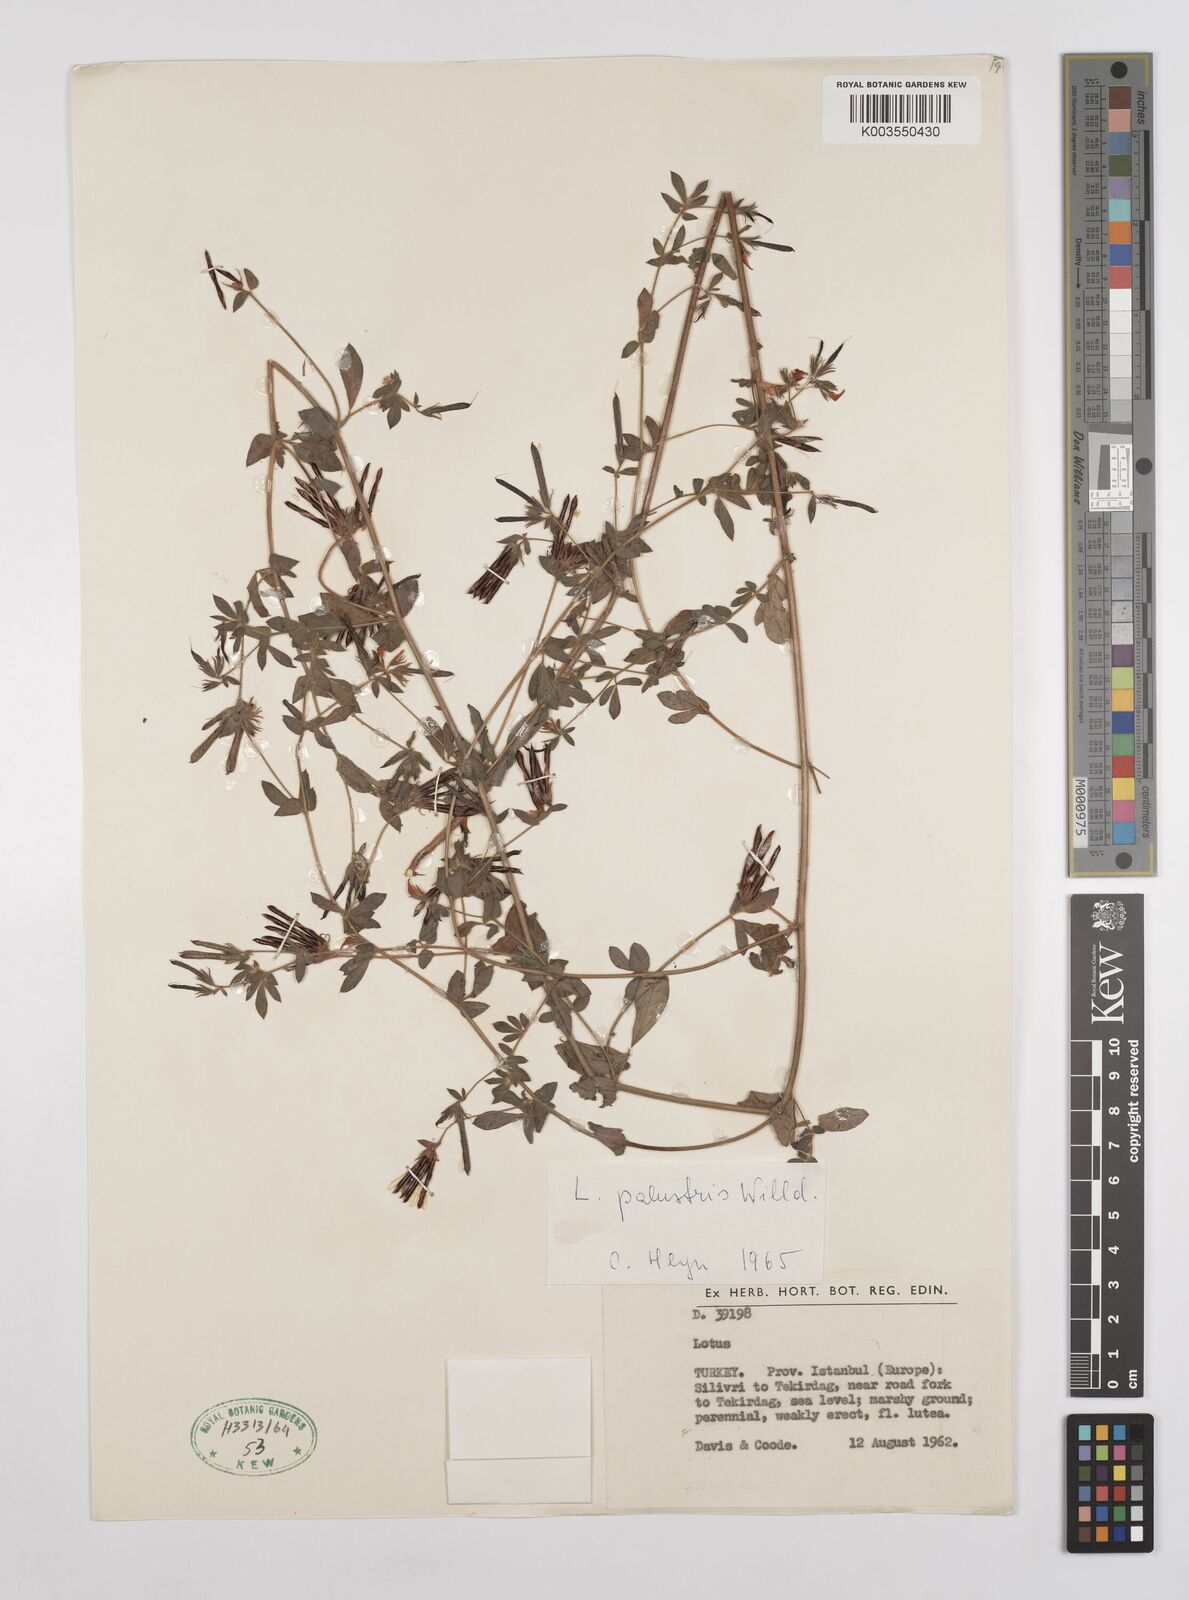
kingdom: Plantae
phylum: Tracheophyta
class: Magnoliopsida
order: Fabales
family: Fabaceae
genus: Lotus
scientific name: Lotus palustris
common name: Large birds-foot trefoil
